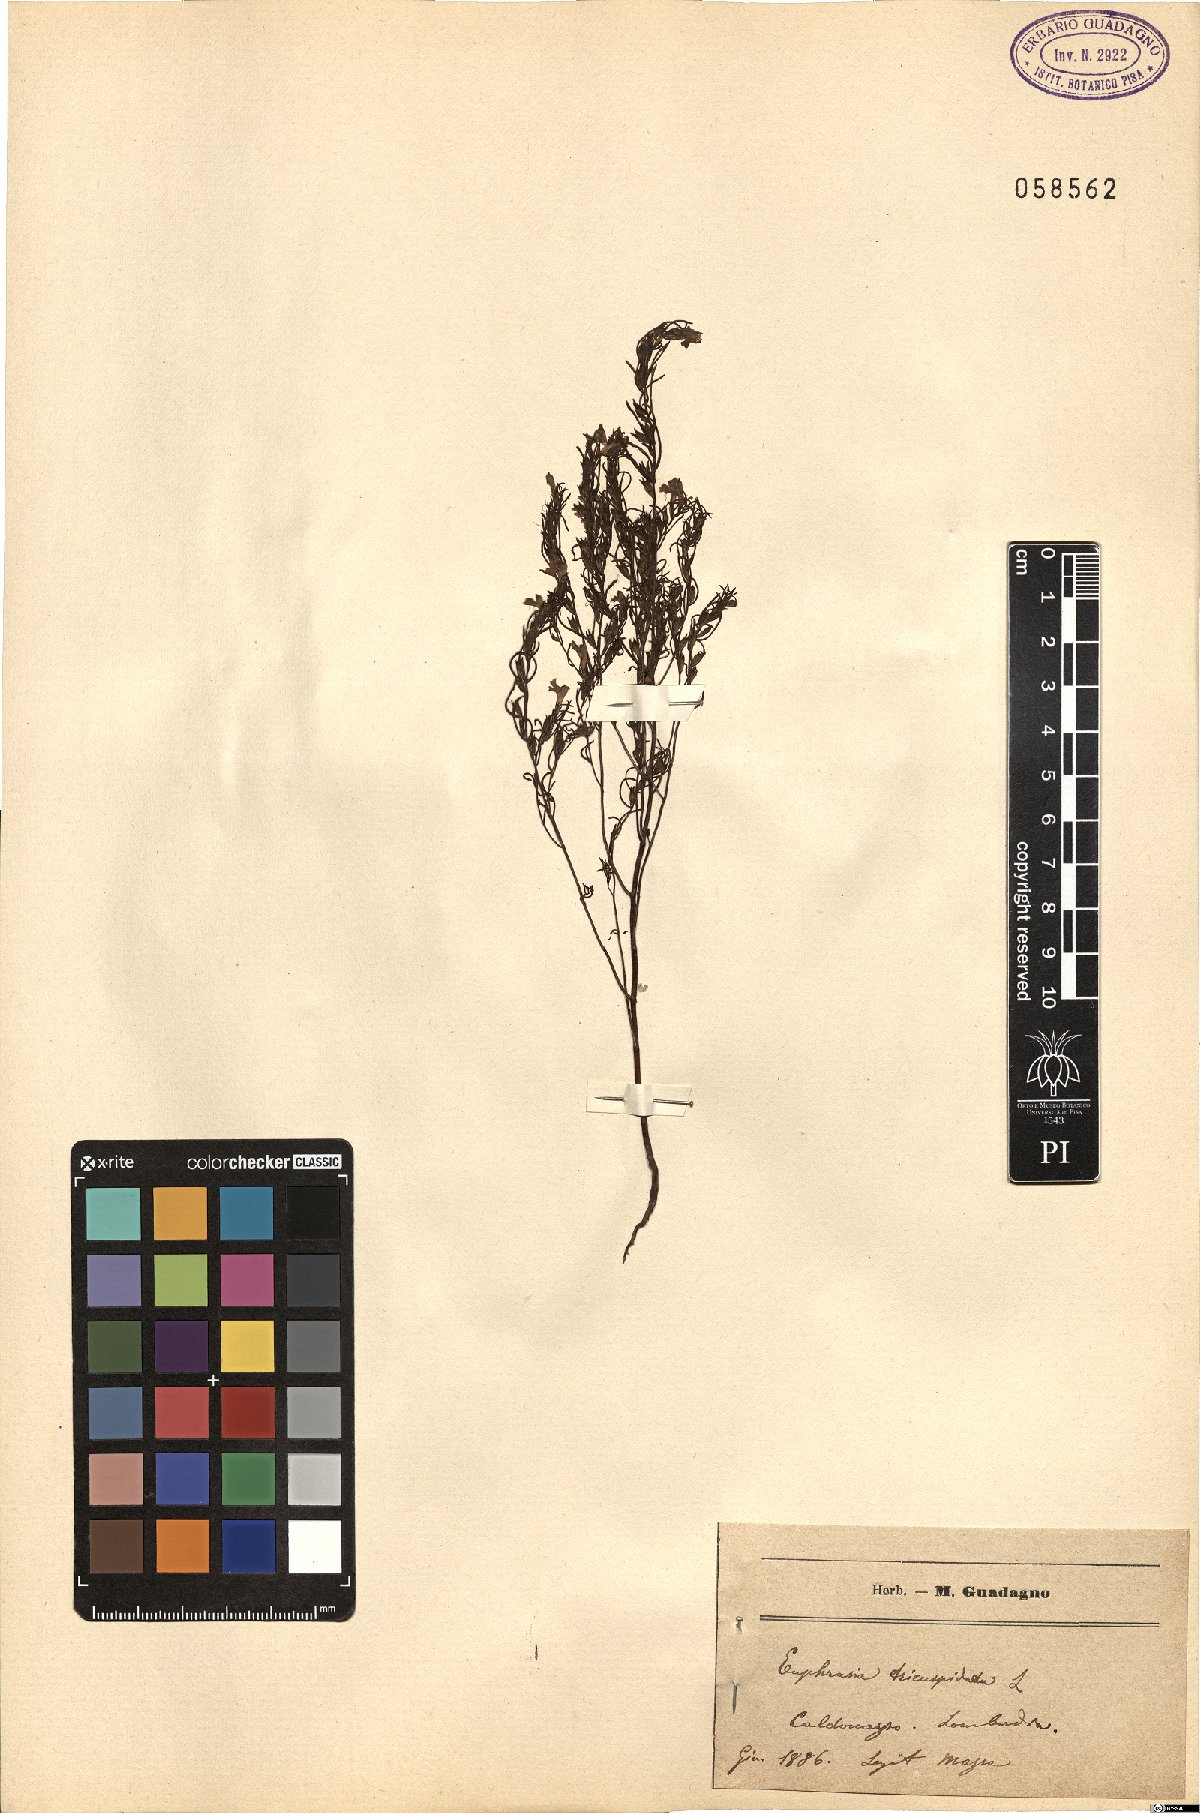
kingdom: Plantae
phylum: Tracheophyta
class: Magnoliopsida
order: Lamiales
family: Orobanchaceae
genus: Euphrasia
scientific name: Euphrasia tricuspidata
